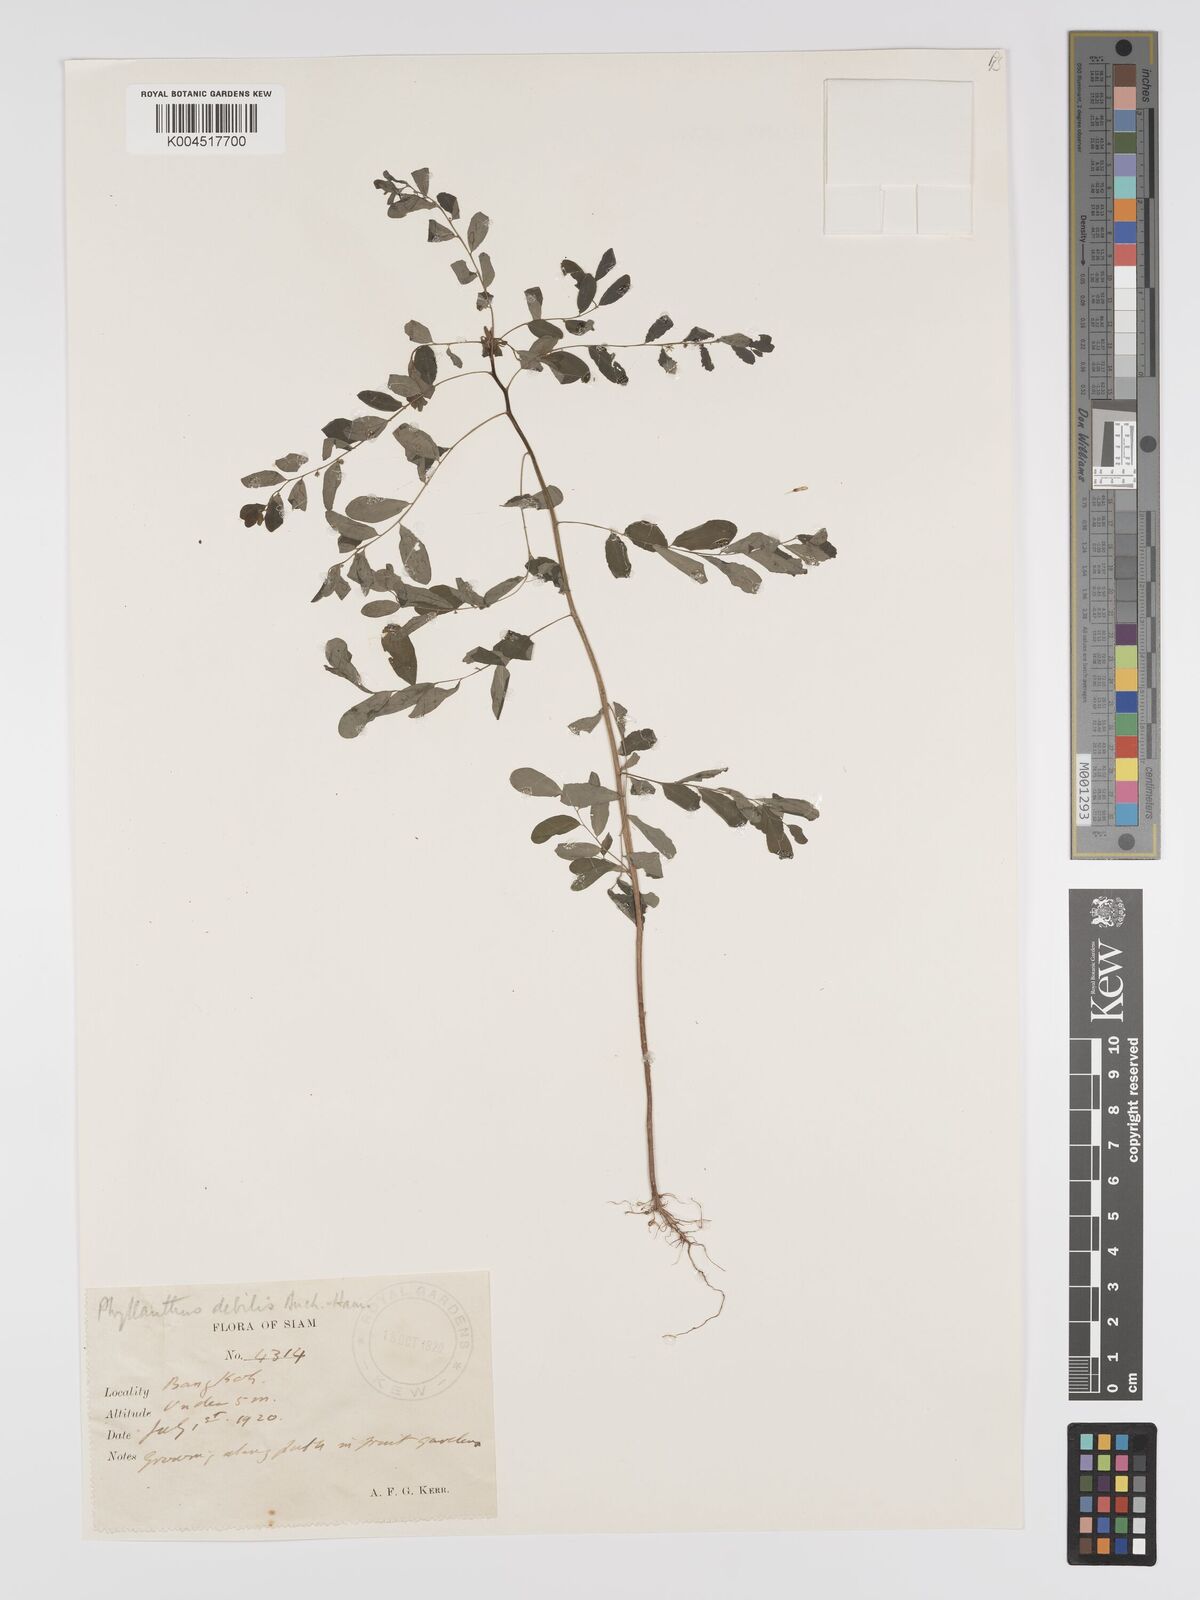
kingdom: Plantae
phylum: Tracheophyta
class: Magnoliopsida
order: Malpighiales
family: Phyllanthaceae
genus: Phyllanthus
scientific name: Phyllanthus
